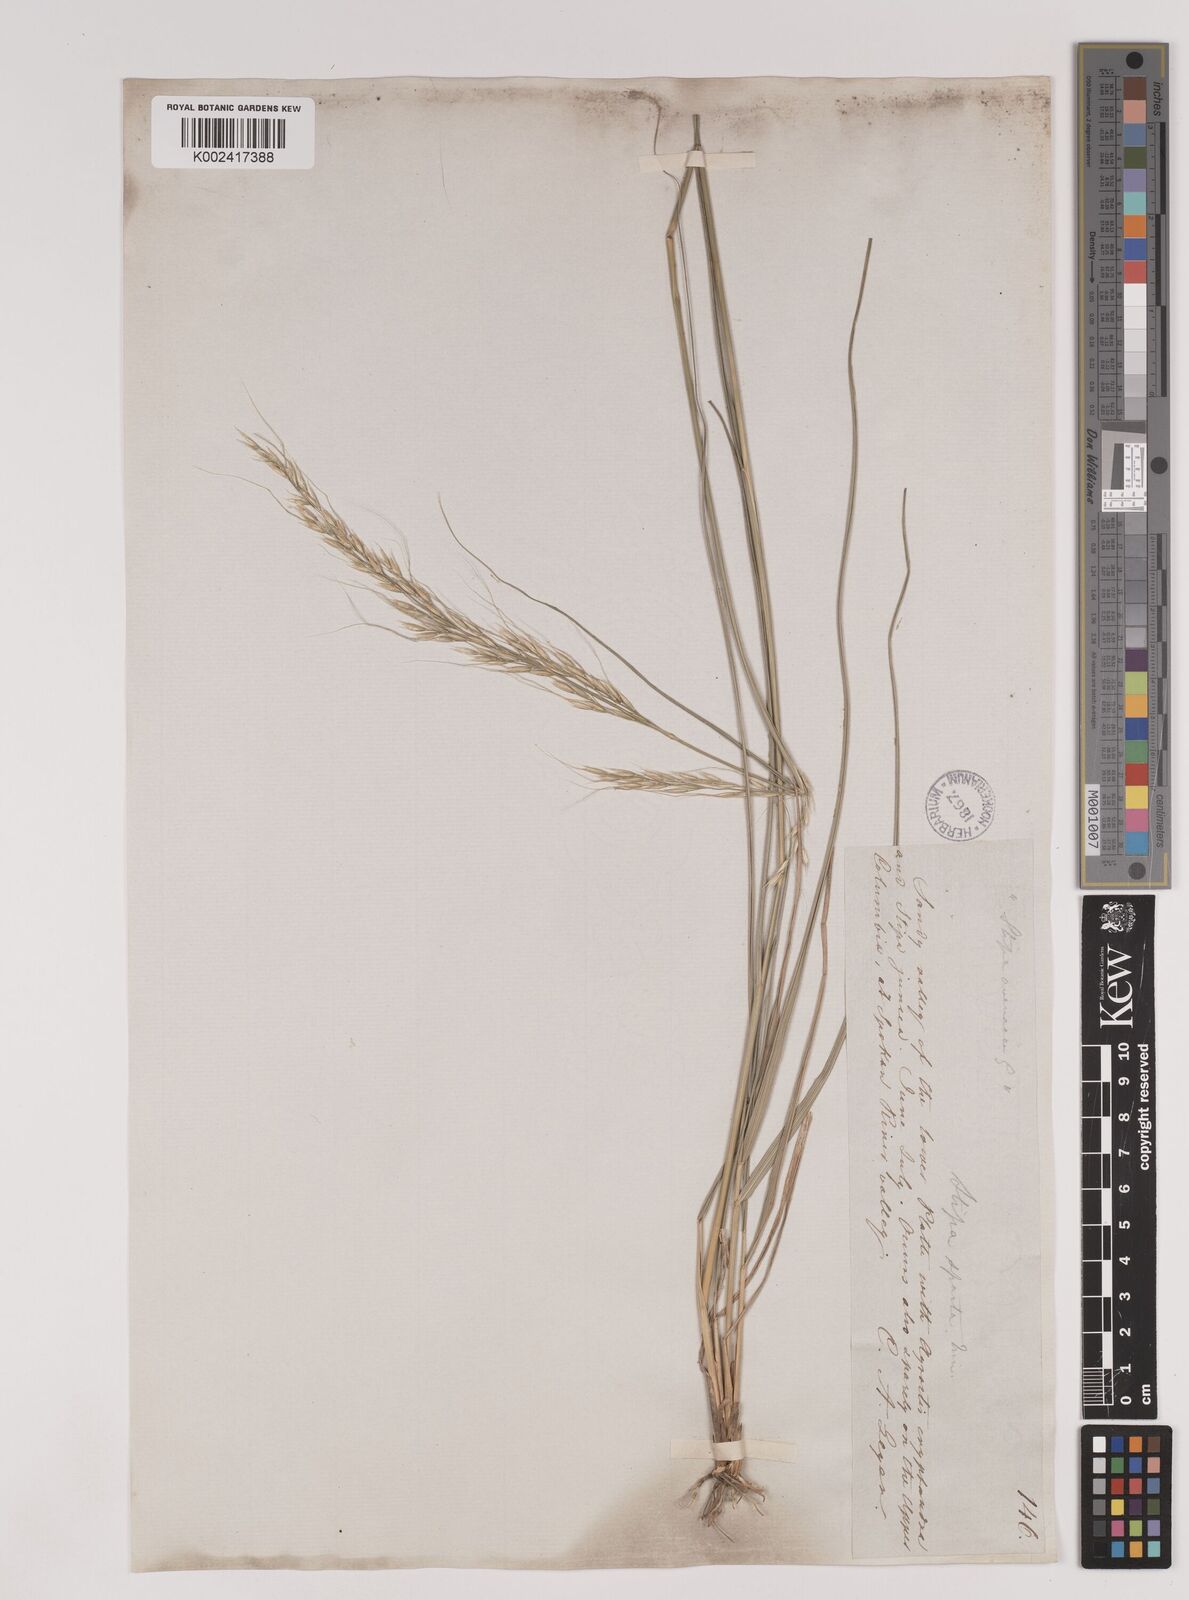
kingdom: Plantae
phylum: Tracheophyta
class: Liliopsida
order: Poales
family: Poaceae
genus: Nassella
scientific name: Nassella viridula
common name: Green needlegrass
